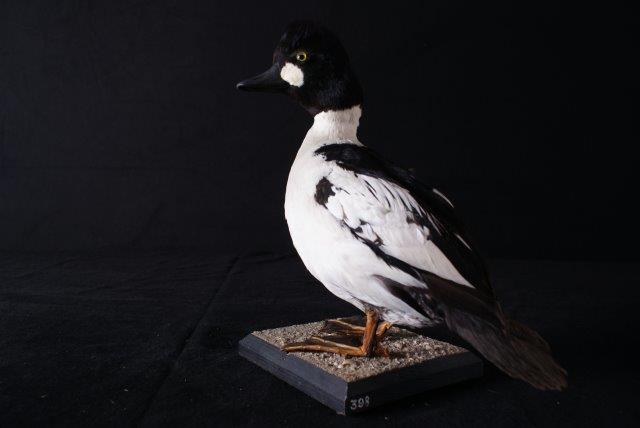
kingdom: Animalia
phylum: Chordata
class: Aves
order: Anseriformes
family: Anatidae
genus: Bucephala
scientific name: Bucephala clangula
